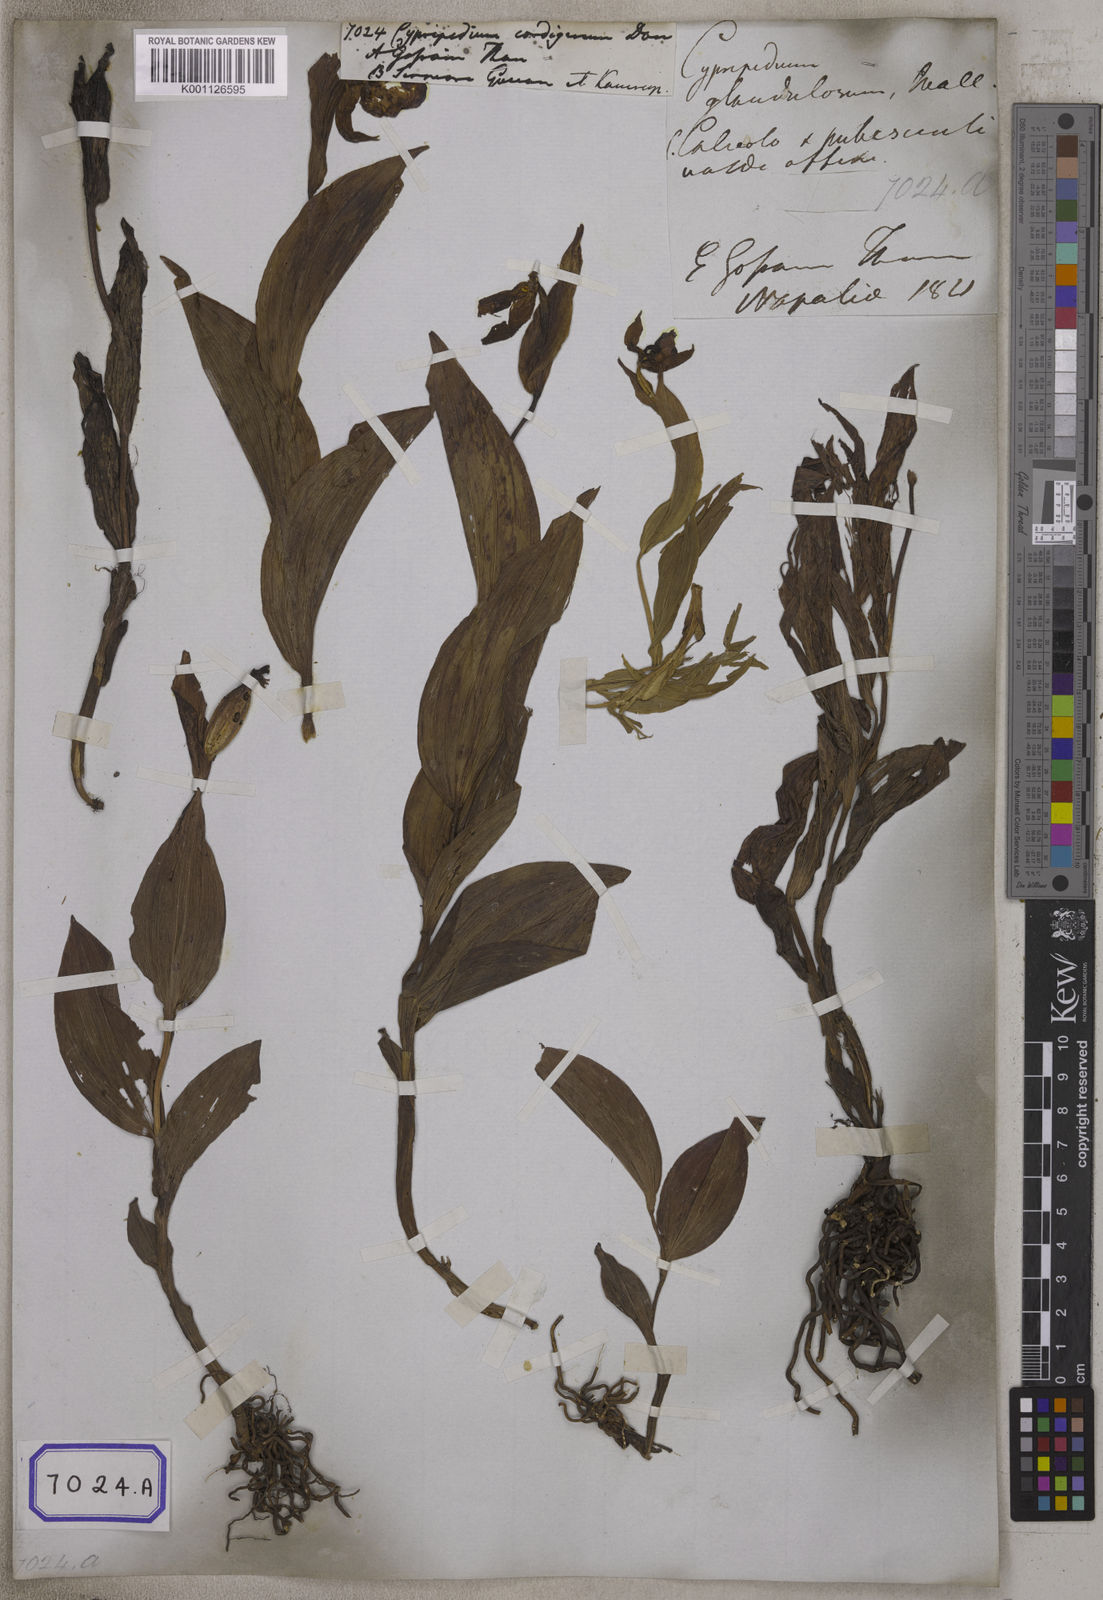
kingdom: Plantae
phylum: Tracheophyta
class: Liliopsida
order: Asparagales
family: Orchidaceae
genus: Cypripedium
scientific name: Cypripedium cordigerum
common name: Heart-shaped lip cypripedium
